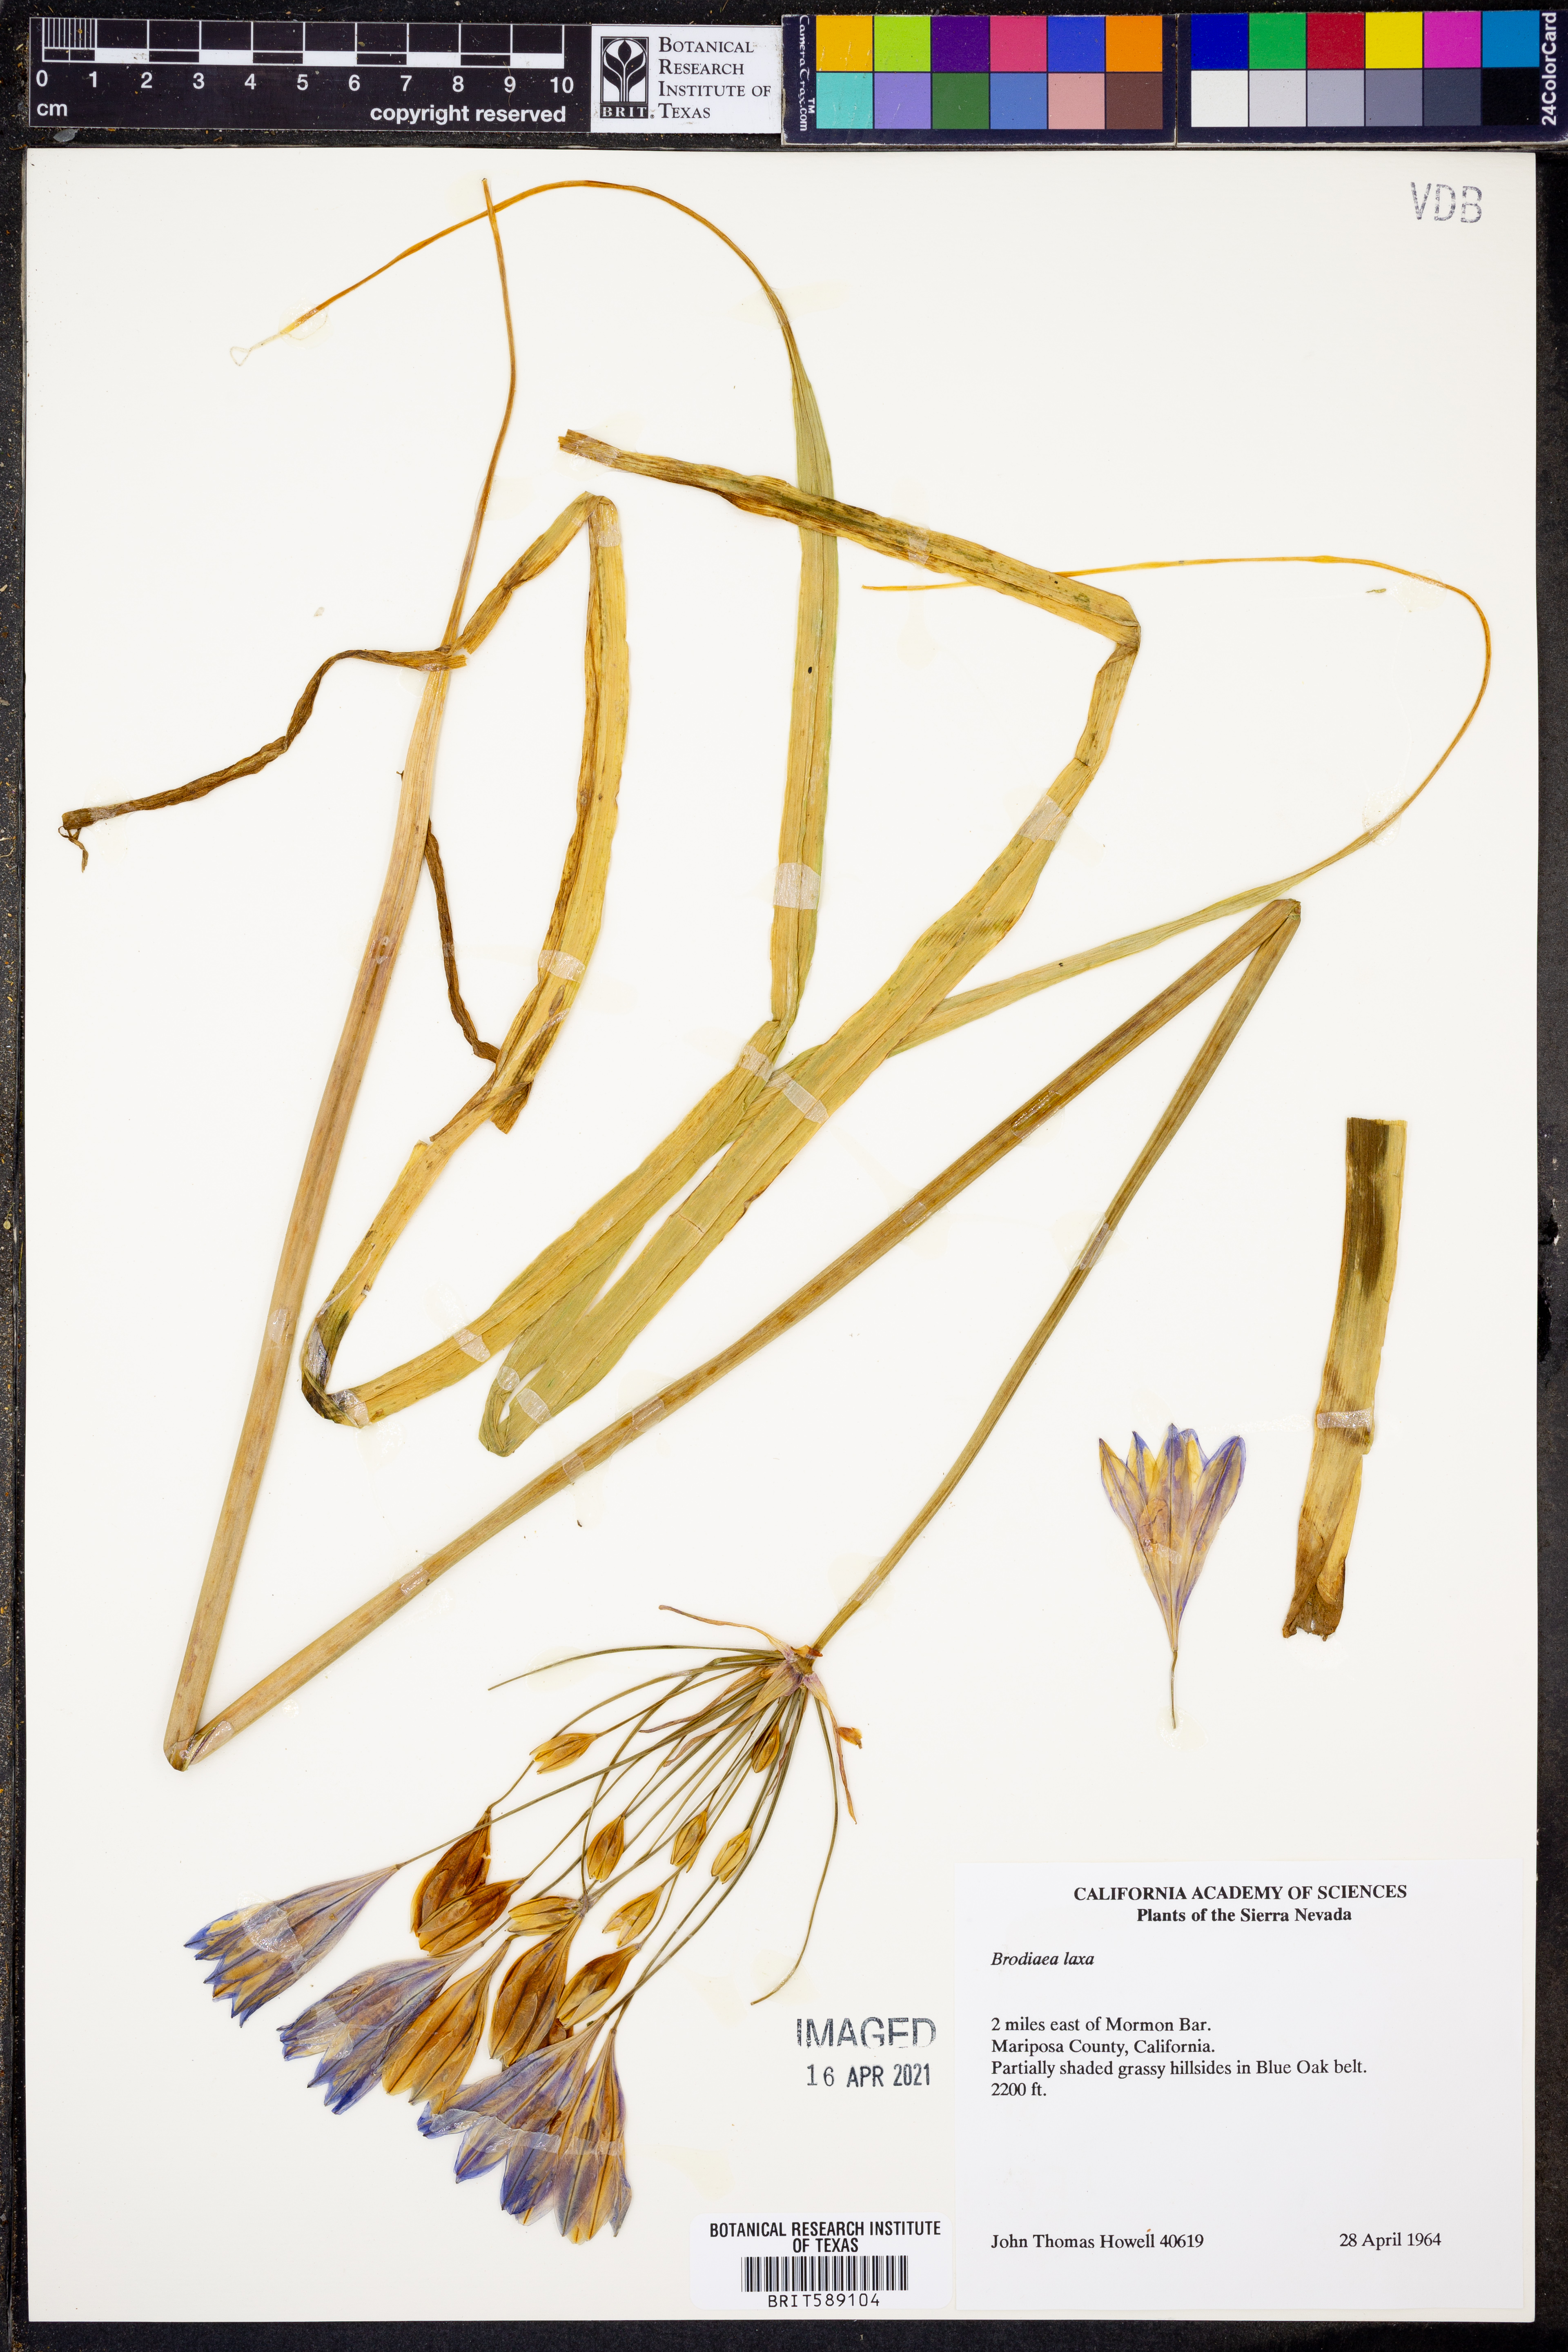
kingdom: Plantae
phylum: Tracheophyta
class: Liliopsida
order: Asparagales
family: Asparagaceae
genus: Triteleia
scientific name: Triteleia laxa
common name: Triplet-lily
